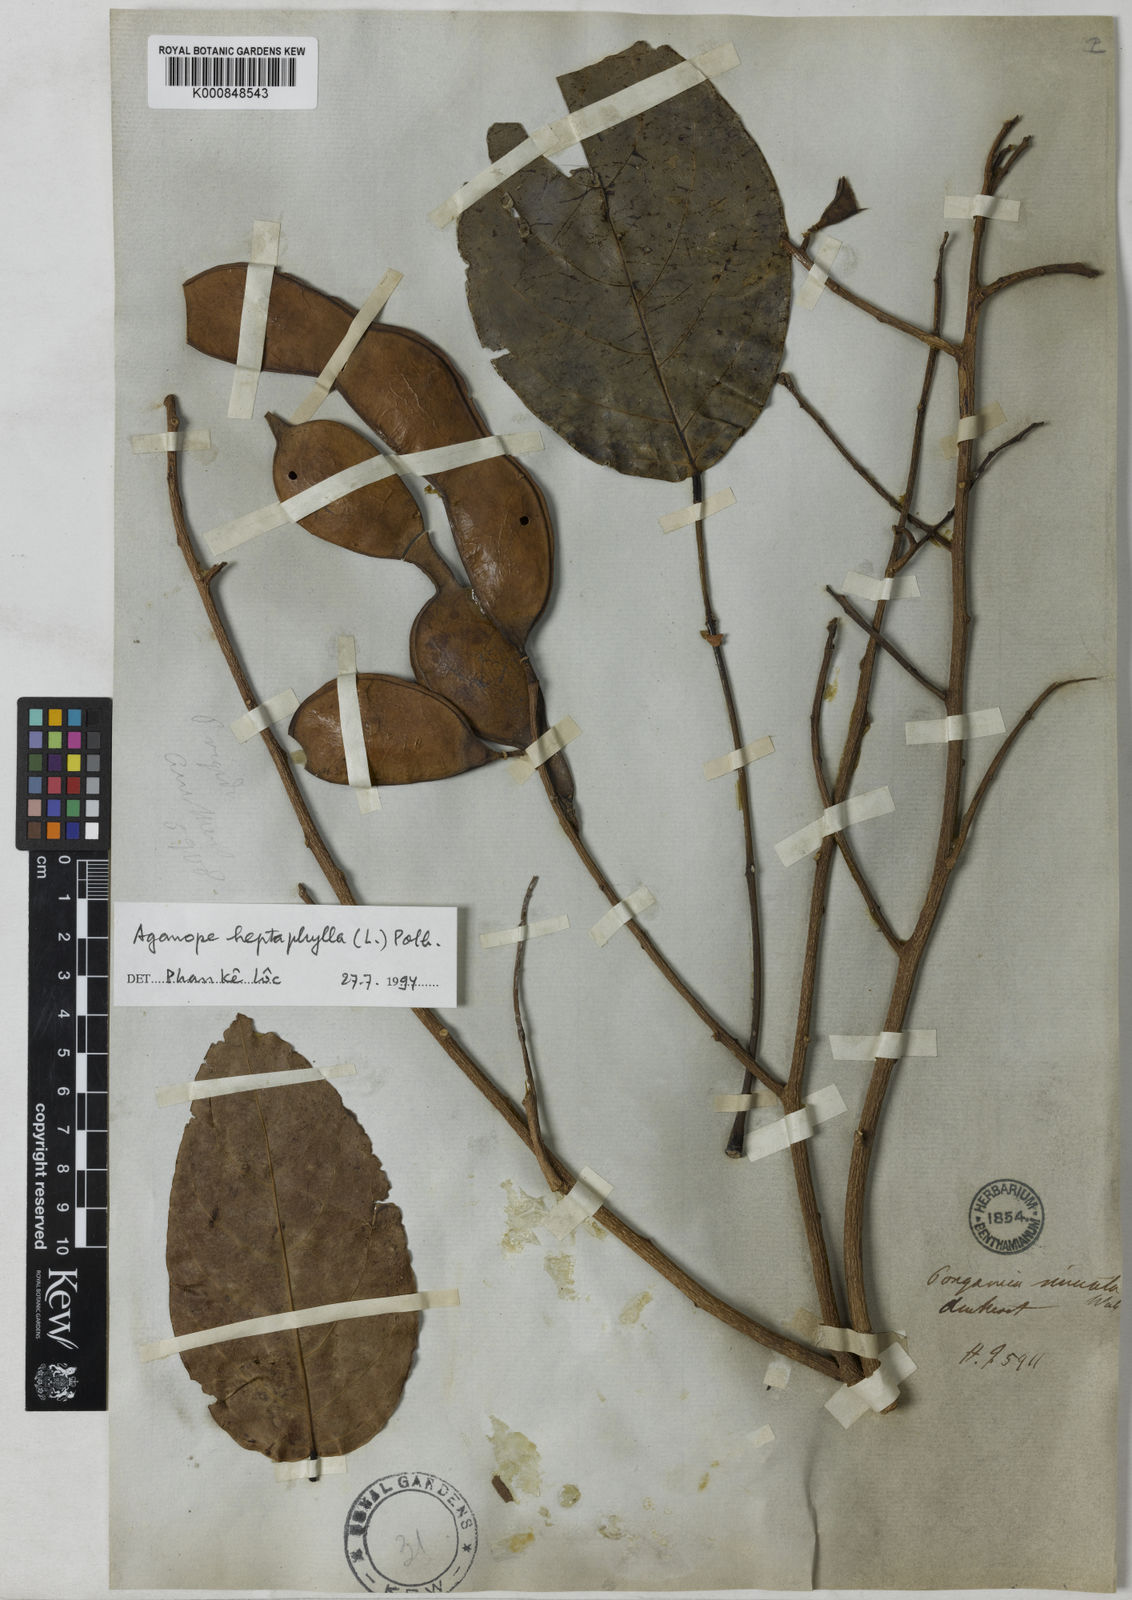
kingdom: Plantae
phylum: Tracheophyta
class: Magnoliopsida
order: Fabales
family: Fabaceae
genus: Aganope
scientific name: Aganope heptaphylla
